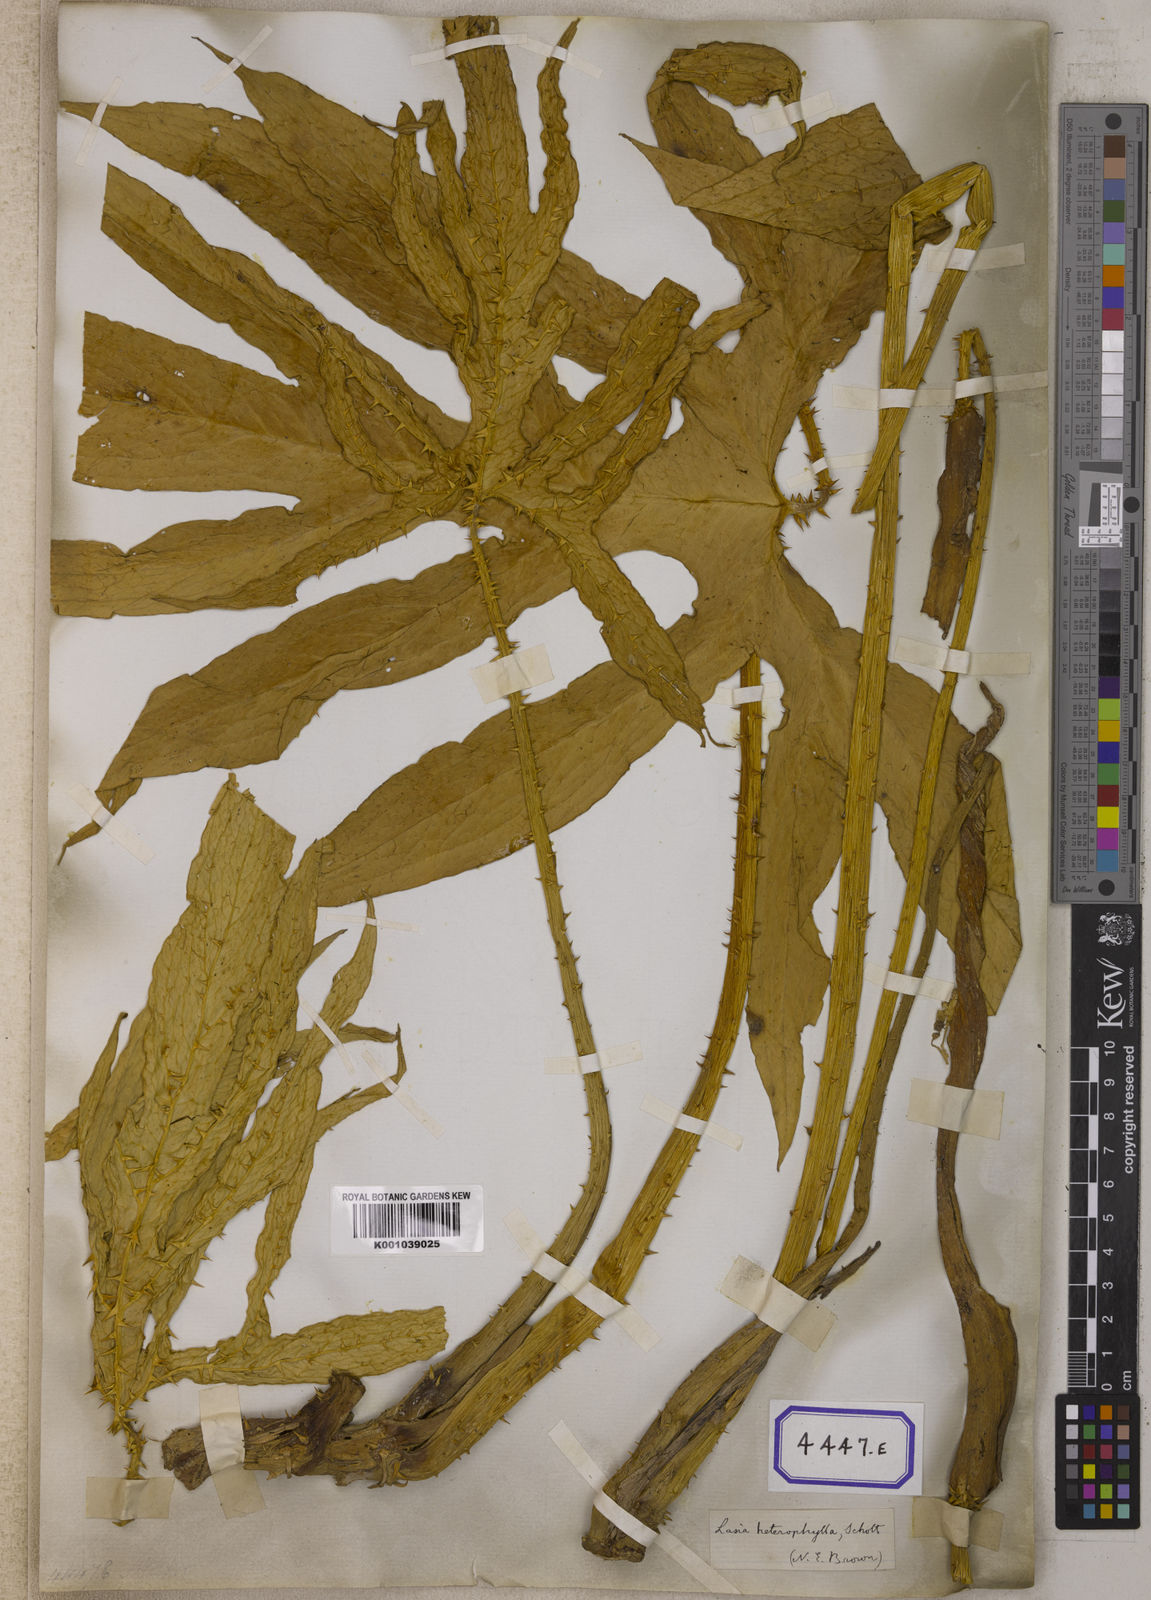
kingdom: Plantae
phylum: Tracheophyta
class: Liliopsida
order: Alismatales
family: Araceae
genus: Lasia
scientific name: Lasia spinosa
